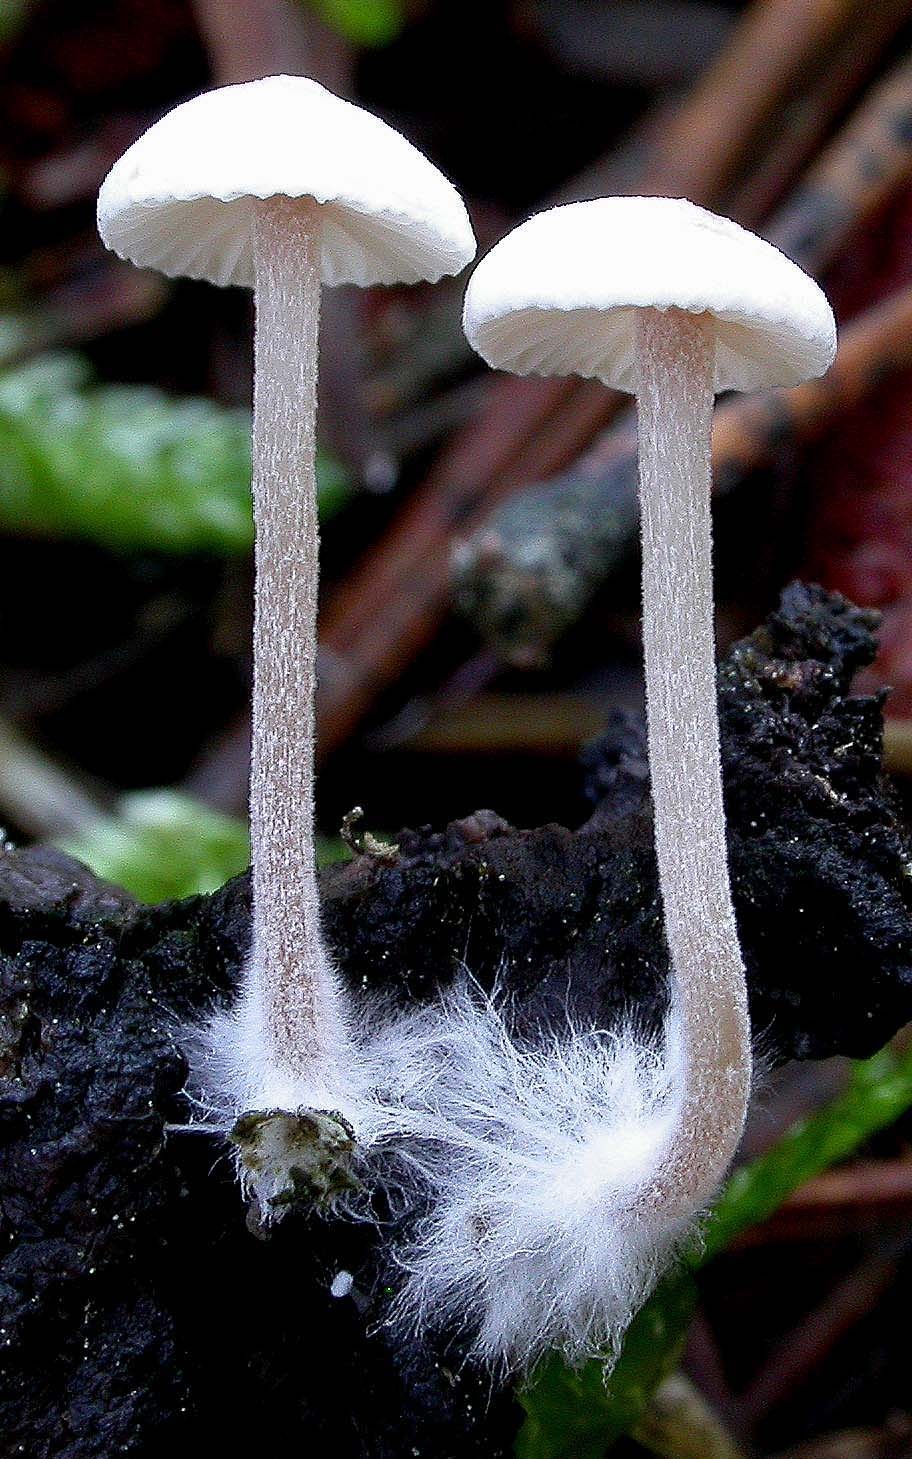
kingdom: Fungi
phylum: Basidiomycota
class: Agaricomycetes
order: Agaricales
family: Tricholomataceae
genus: Collybia
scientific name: Collybia cirrhata
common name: silke-lighat
